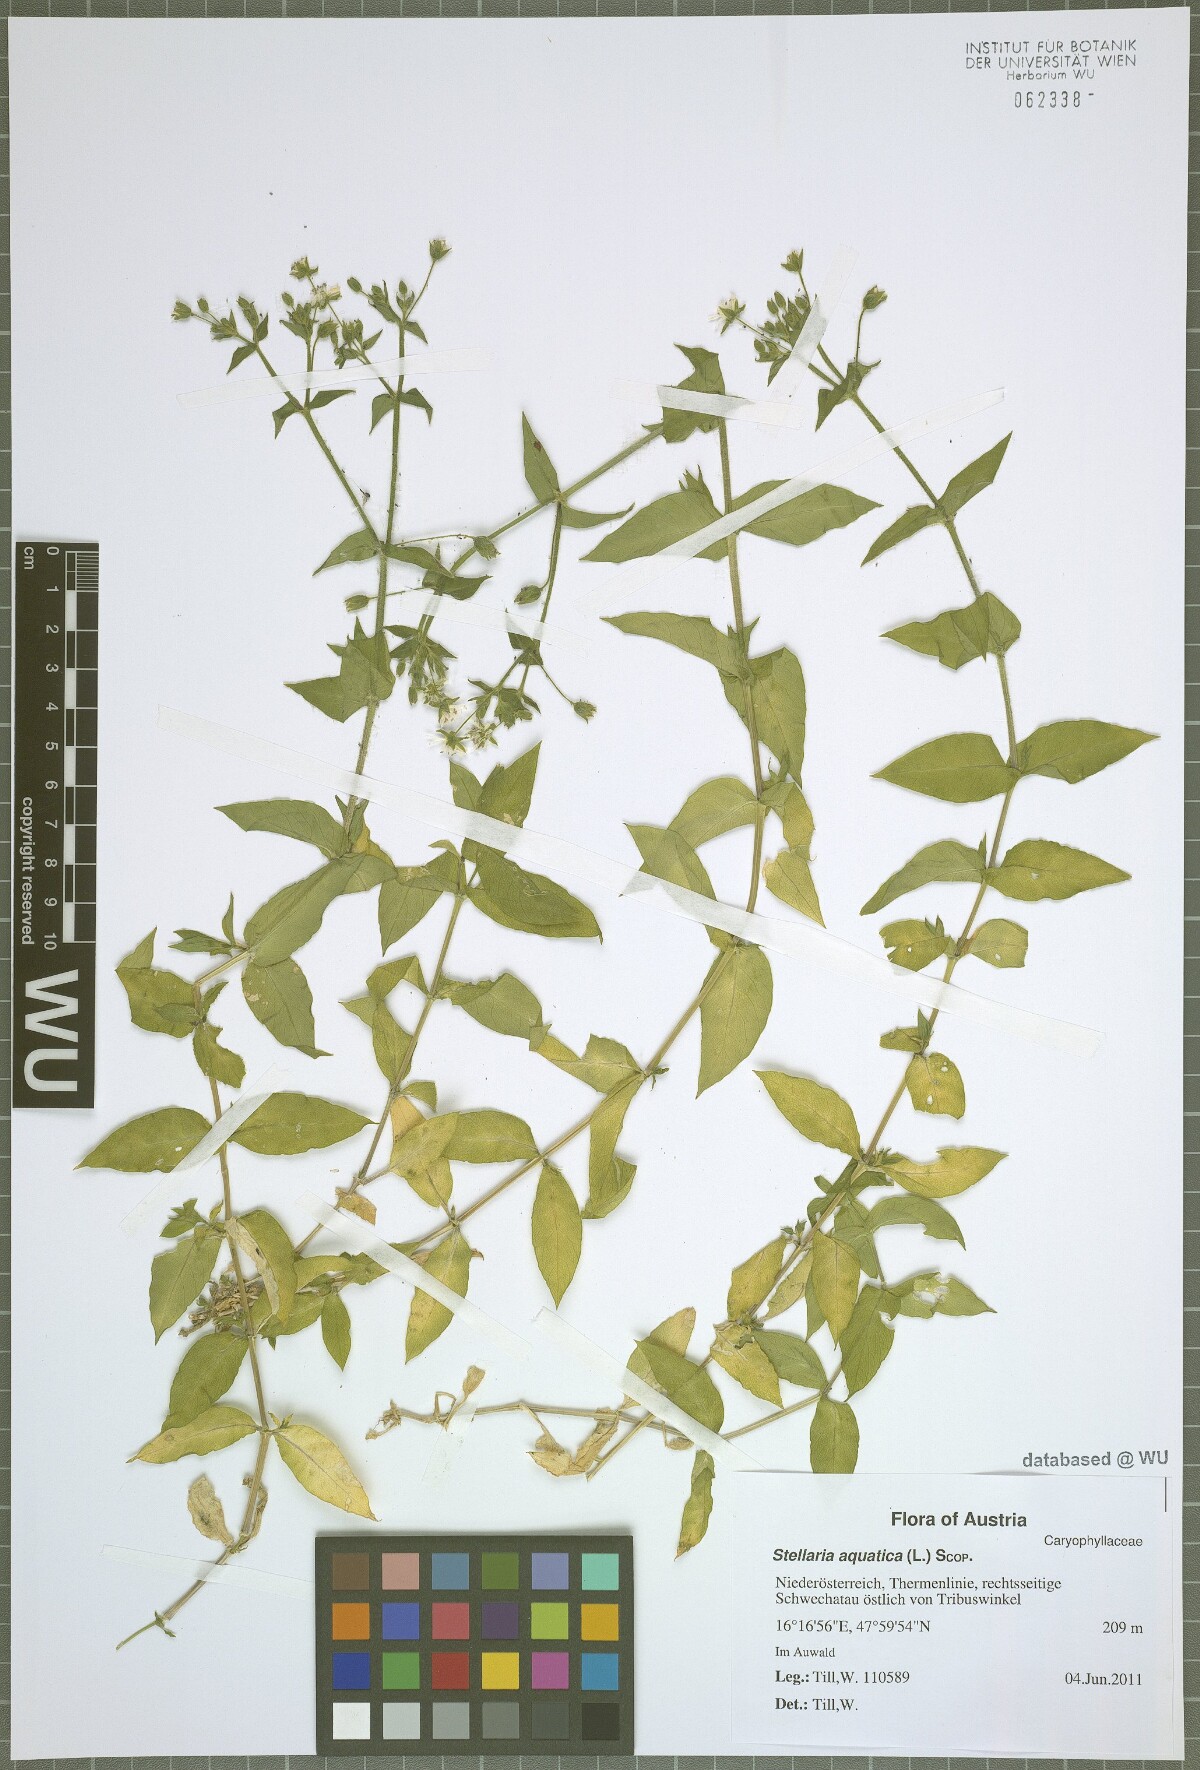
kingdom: Plantae
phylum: Tracheophyta
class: Magnoliopsida
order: Caryophyllales
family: Caryophyllaceae
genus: Stellaria
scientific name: Stellaria aquatica
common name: Water chickweed
